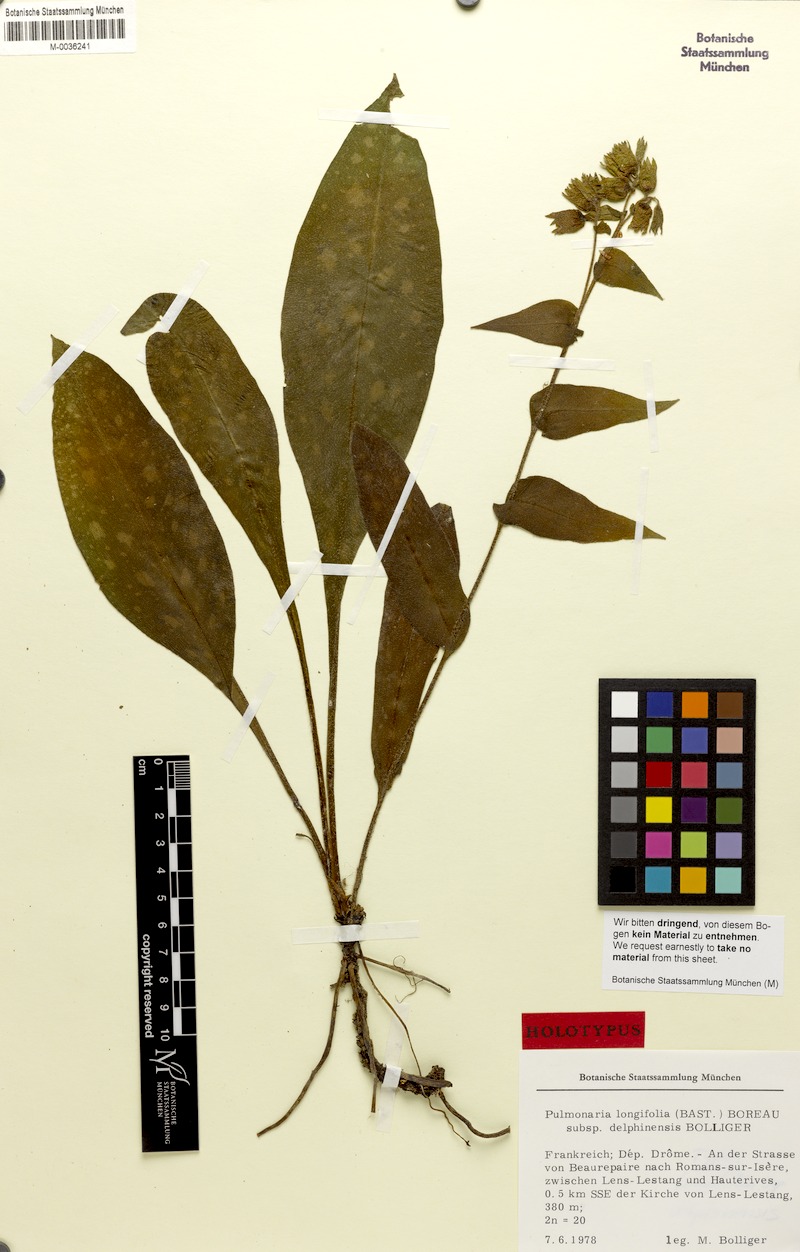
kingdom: Plantae
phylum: Tracheophyta
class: Magnoliopsida
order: Boraginales
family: Boraginaceae
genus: Pulmonaria
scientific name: Pulmonaria longifolia
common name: Narrow-leaved lungwort
